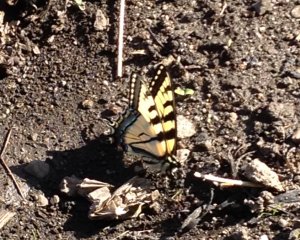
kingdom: Animalia
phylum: Arthropoda
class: Insecta
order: Lepidoptera
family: Papilionidae
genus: Pterourus
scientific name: Pterourus canadensis
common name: Canadian Tiger Swallowtail
